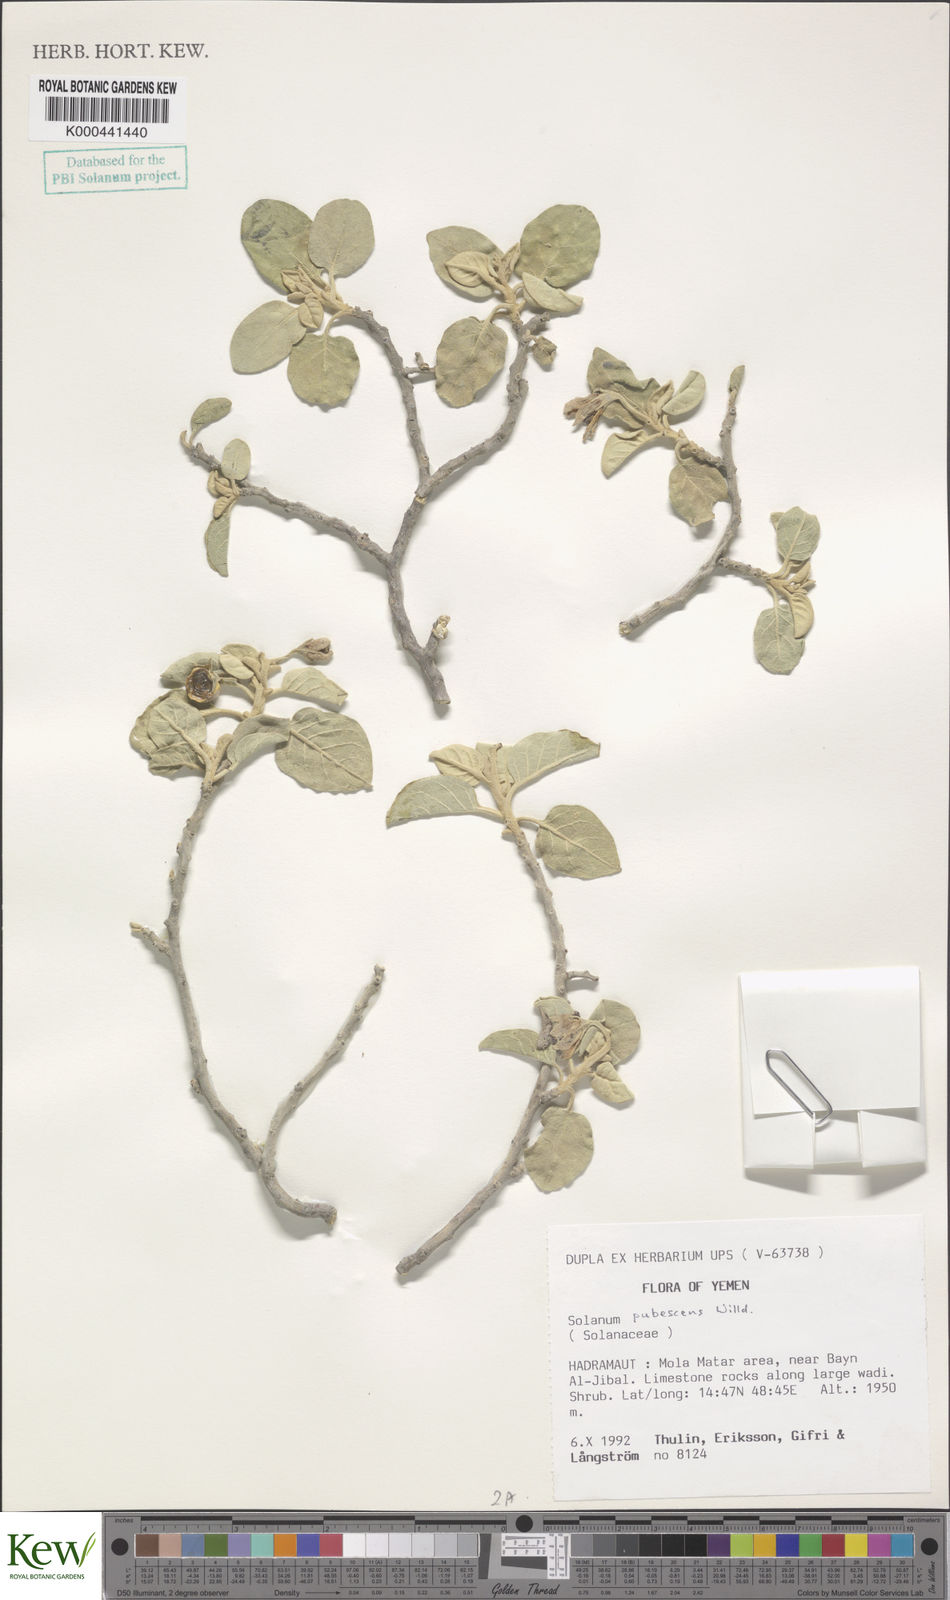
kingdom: Plantae
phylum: Tracheophyta
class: Magnoliopsida
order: Solanales
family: Solanaceae
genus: Solanum
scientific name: Solanum pubescens
